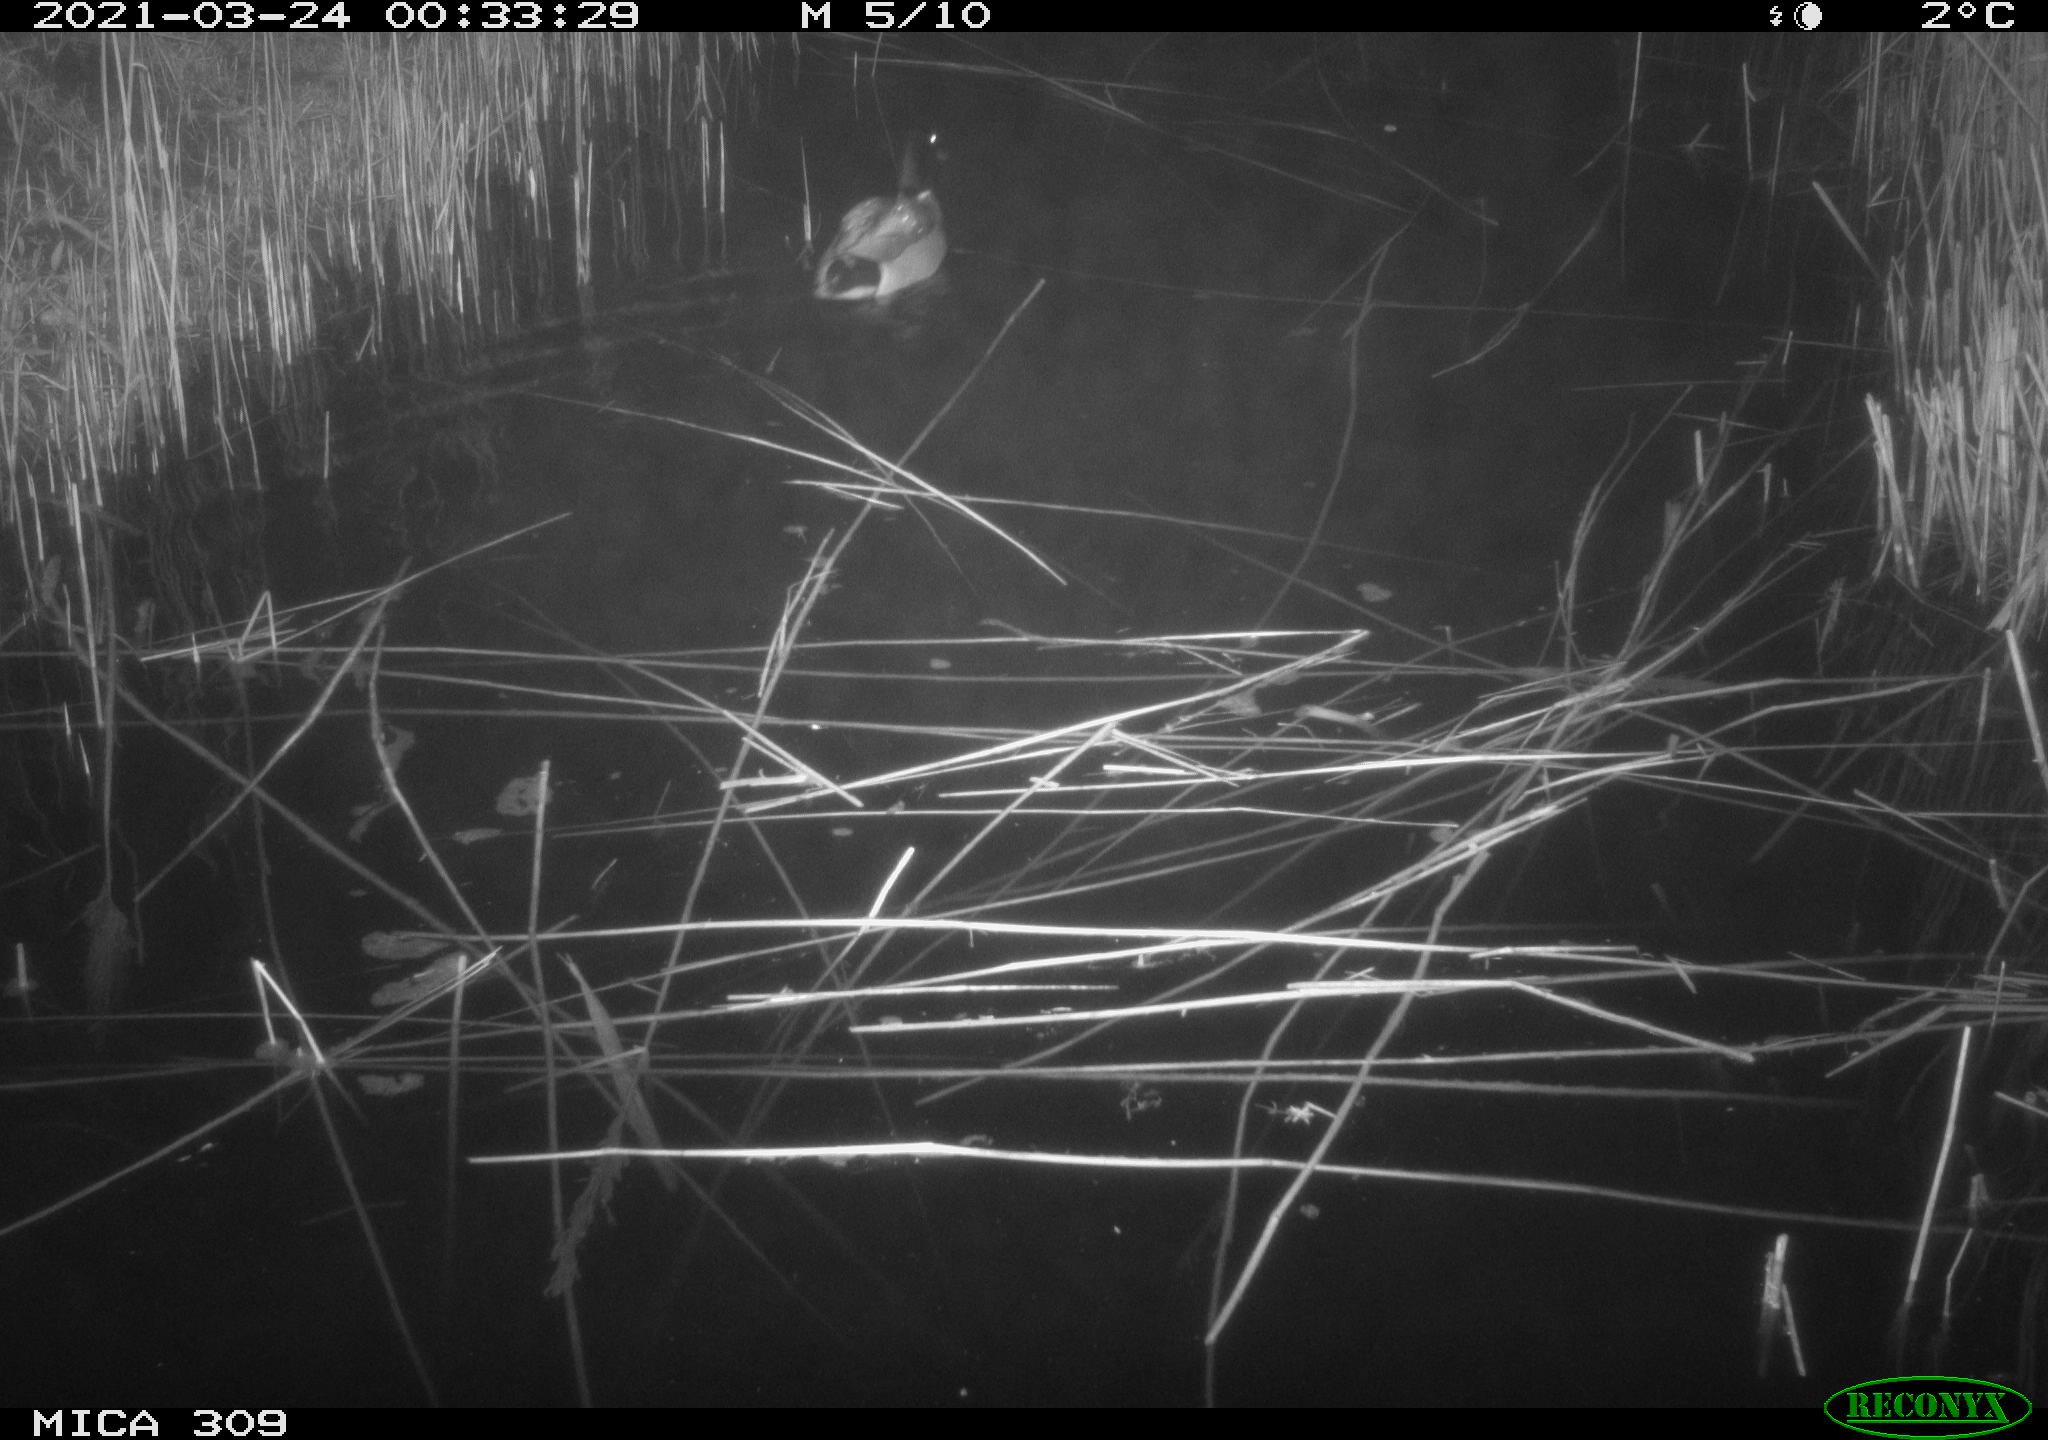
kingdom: Animalia
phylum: Chordata
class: Aves
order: Anseriformes
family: Anatidae
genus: Anas
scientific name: Anas platyrhynchos
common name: Mallard
